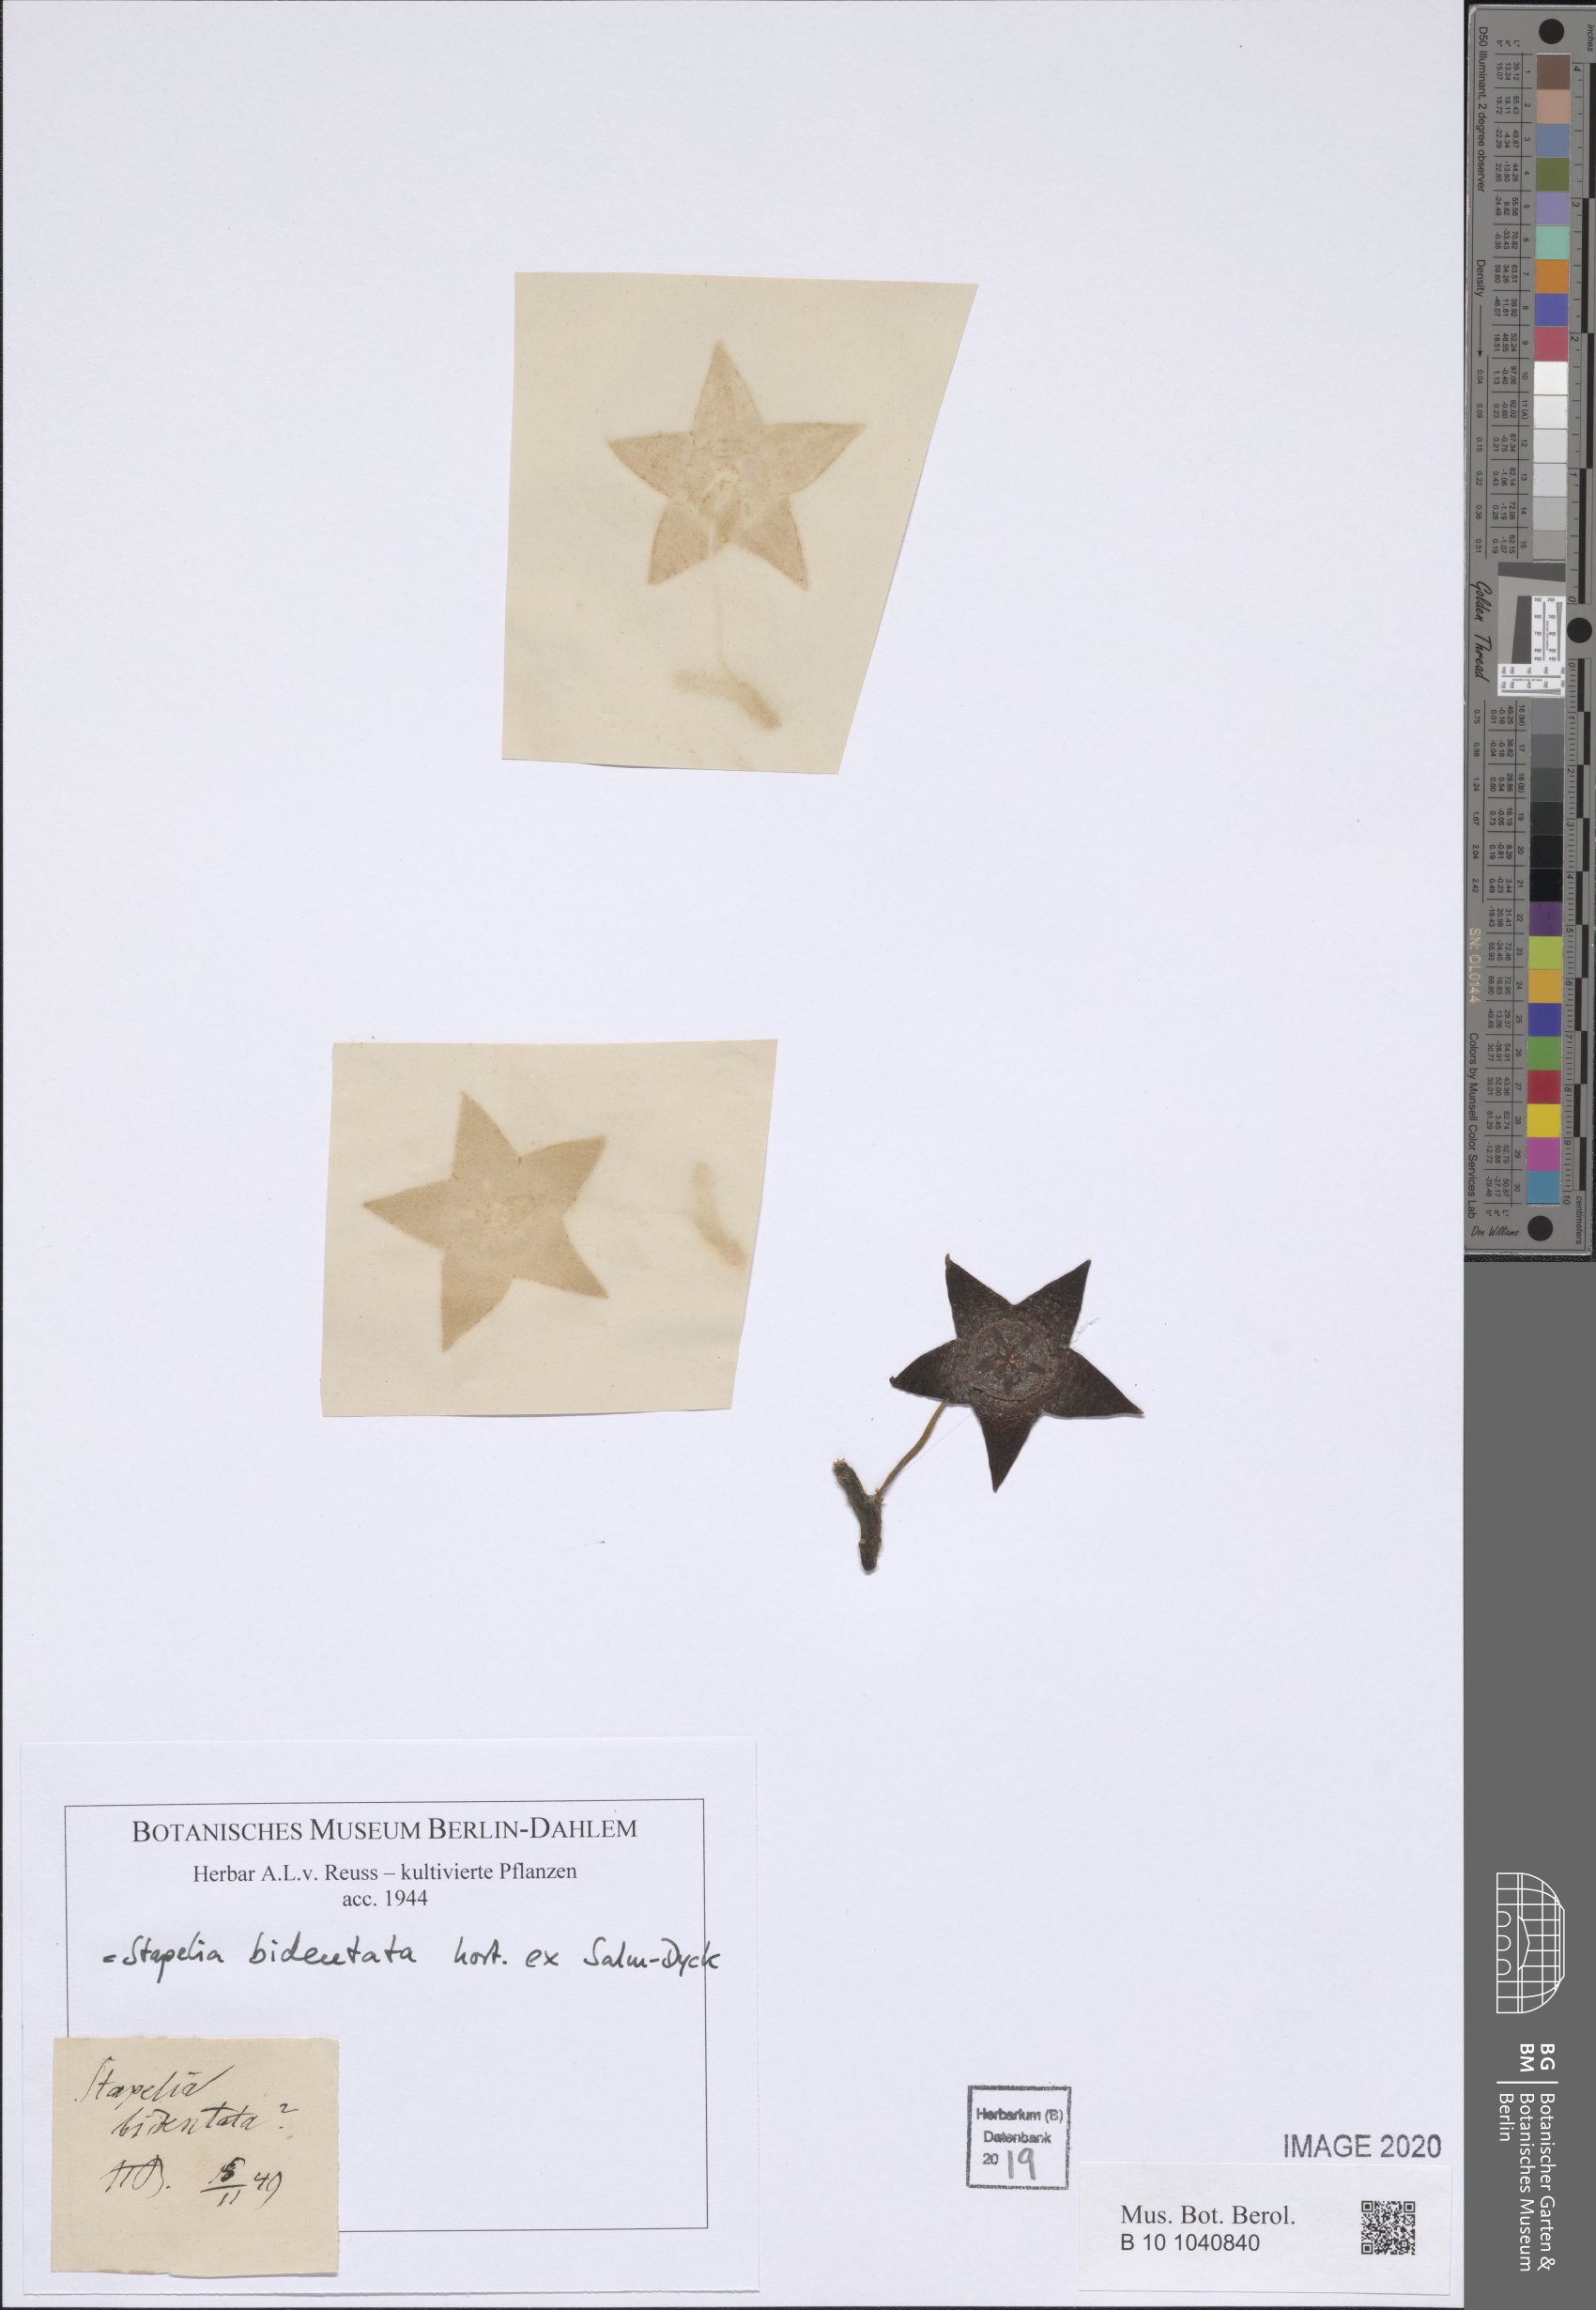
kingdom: Plantae
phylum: Tracheophyta
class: Magnoliopsida
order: Gentianales
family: Apocynaceae
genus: Ceropegia
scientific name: Ceropegia mixta
